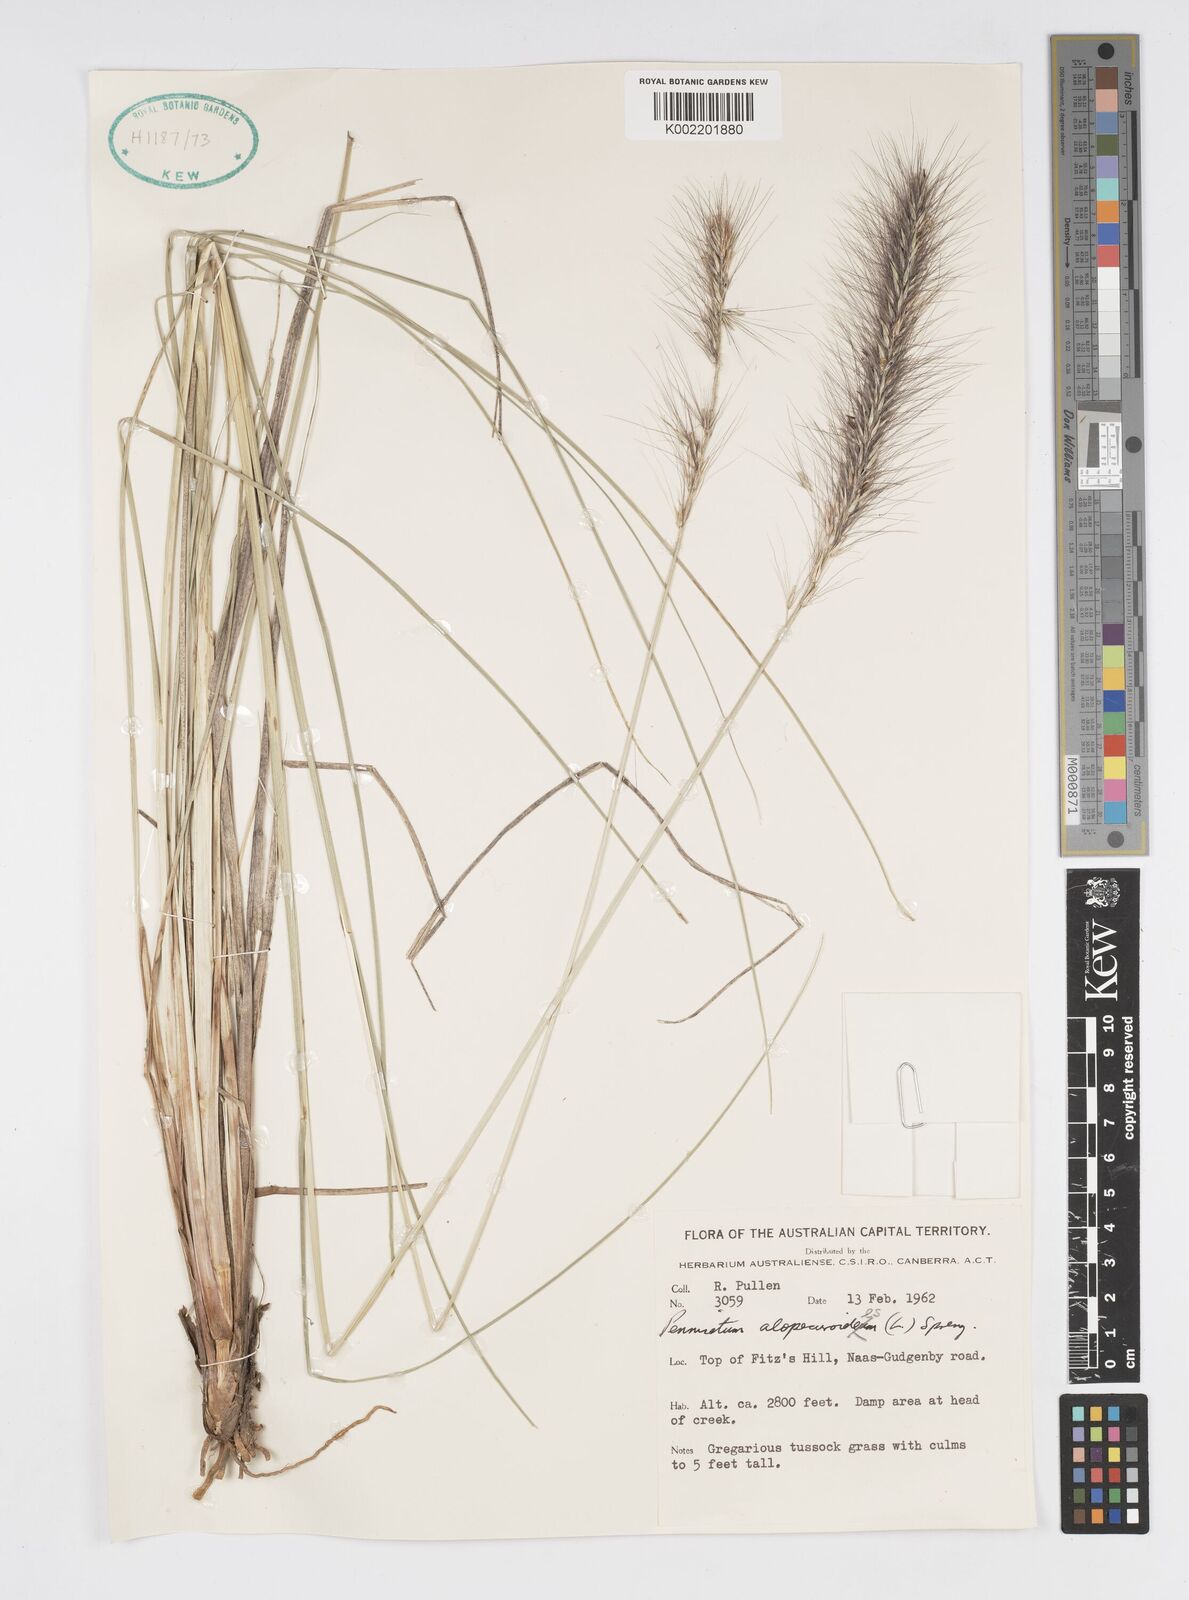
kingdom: Plantae
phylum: Tracheophyta
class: Liliopsida
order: Poales
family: Poaceae
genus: Cenchrus
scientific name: Cenchrus alopecuroides
